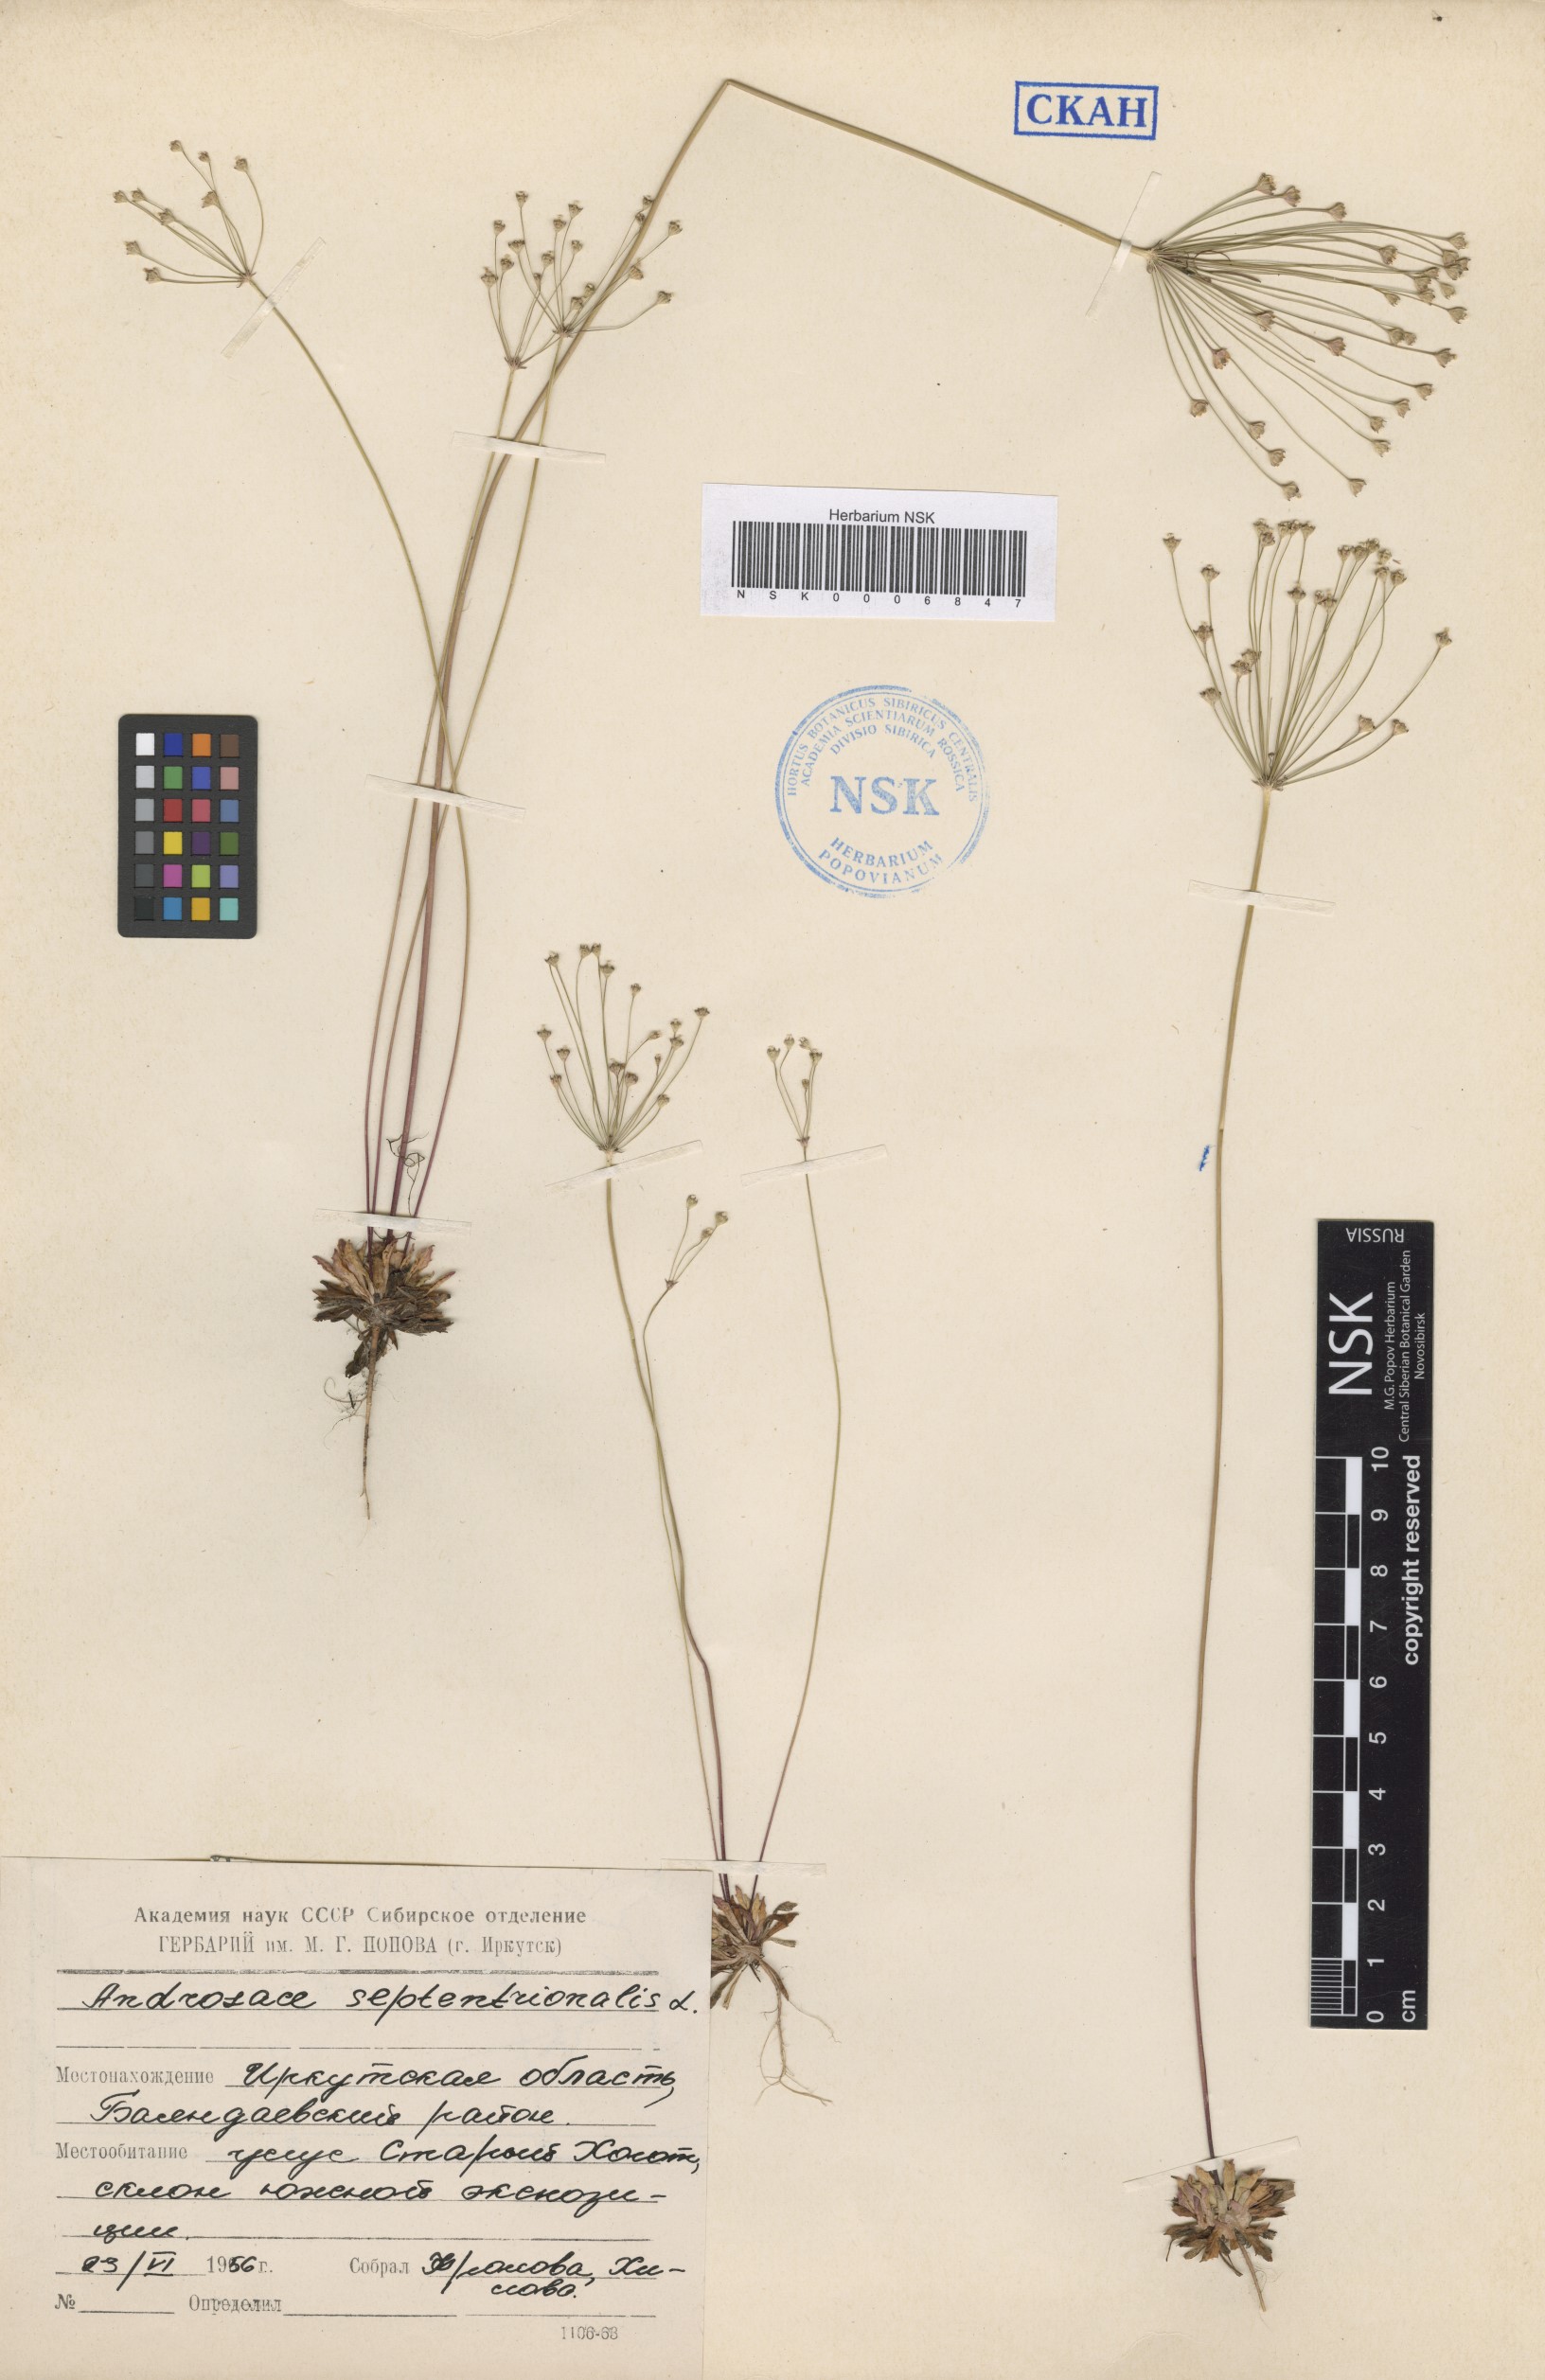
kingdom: Plantae
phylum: Tracheophyta
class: Magnoliopsida
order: Ericales
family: Primulaceae
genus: Androsace
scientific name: Androsace septentrionalis
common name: Hairy northern fairy-candelabra
